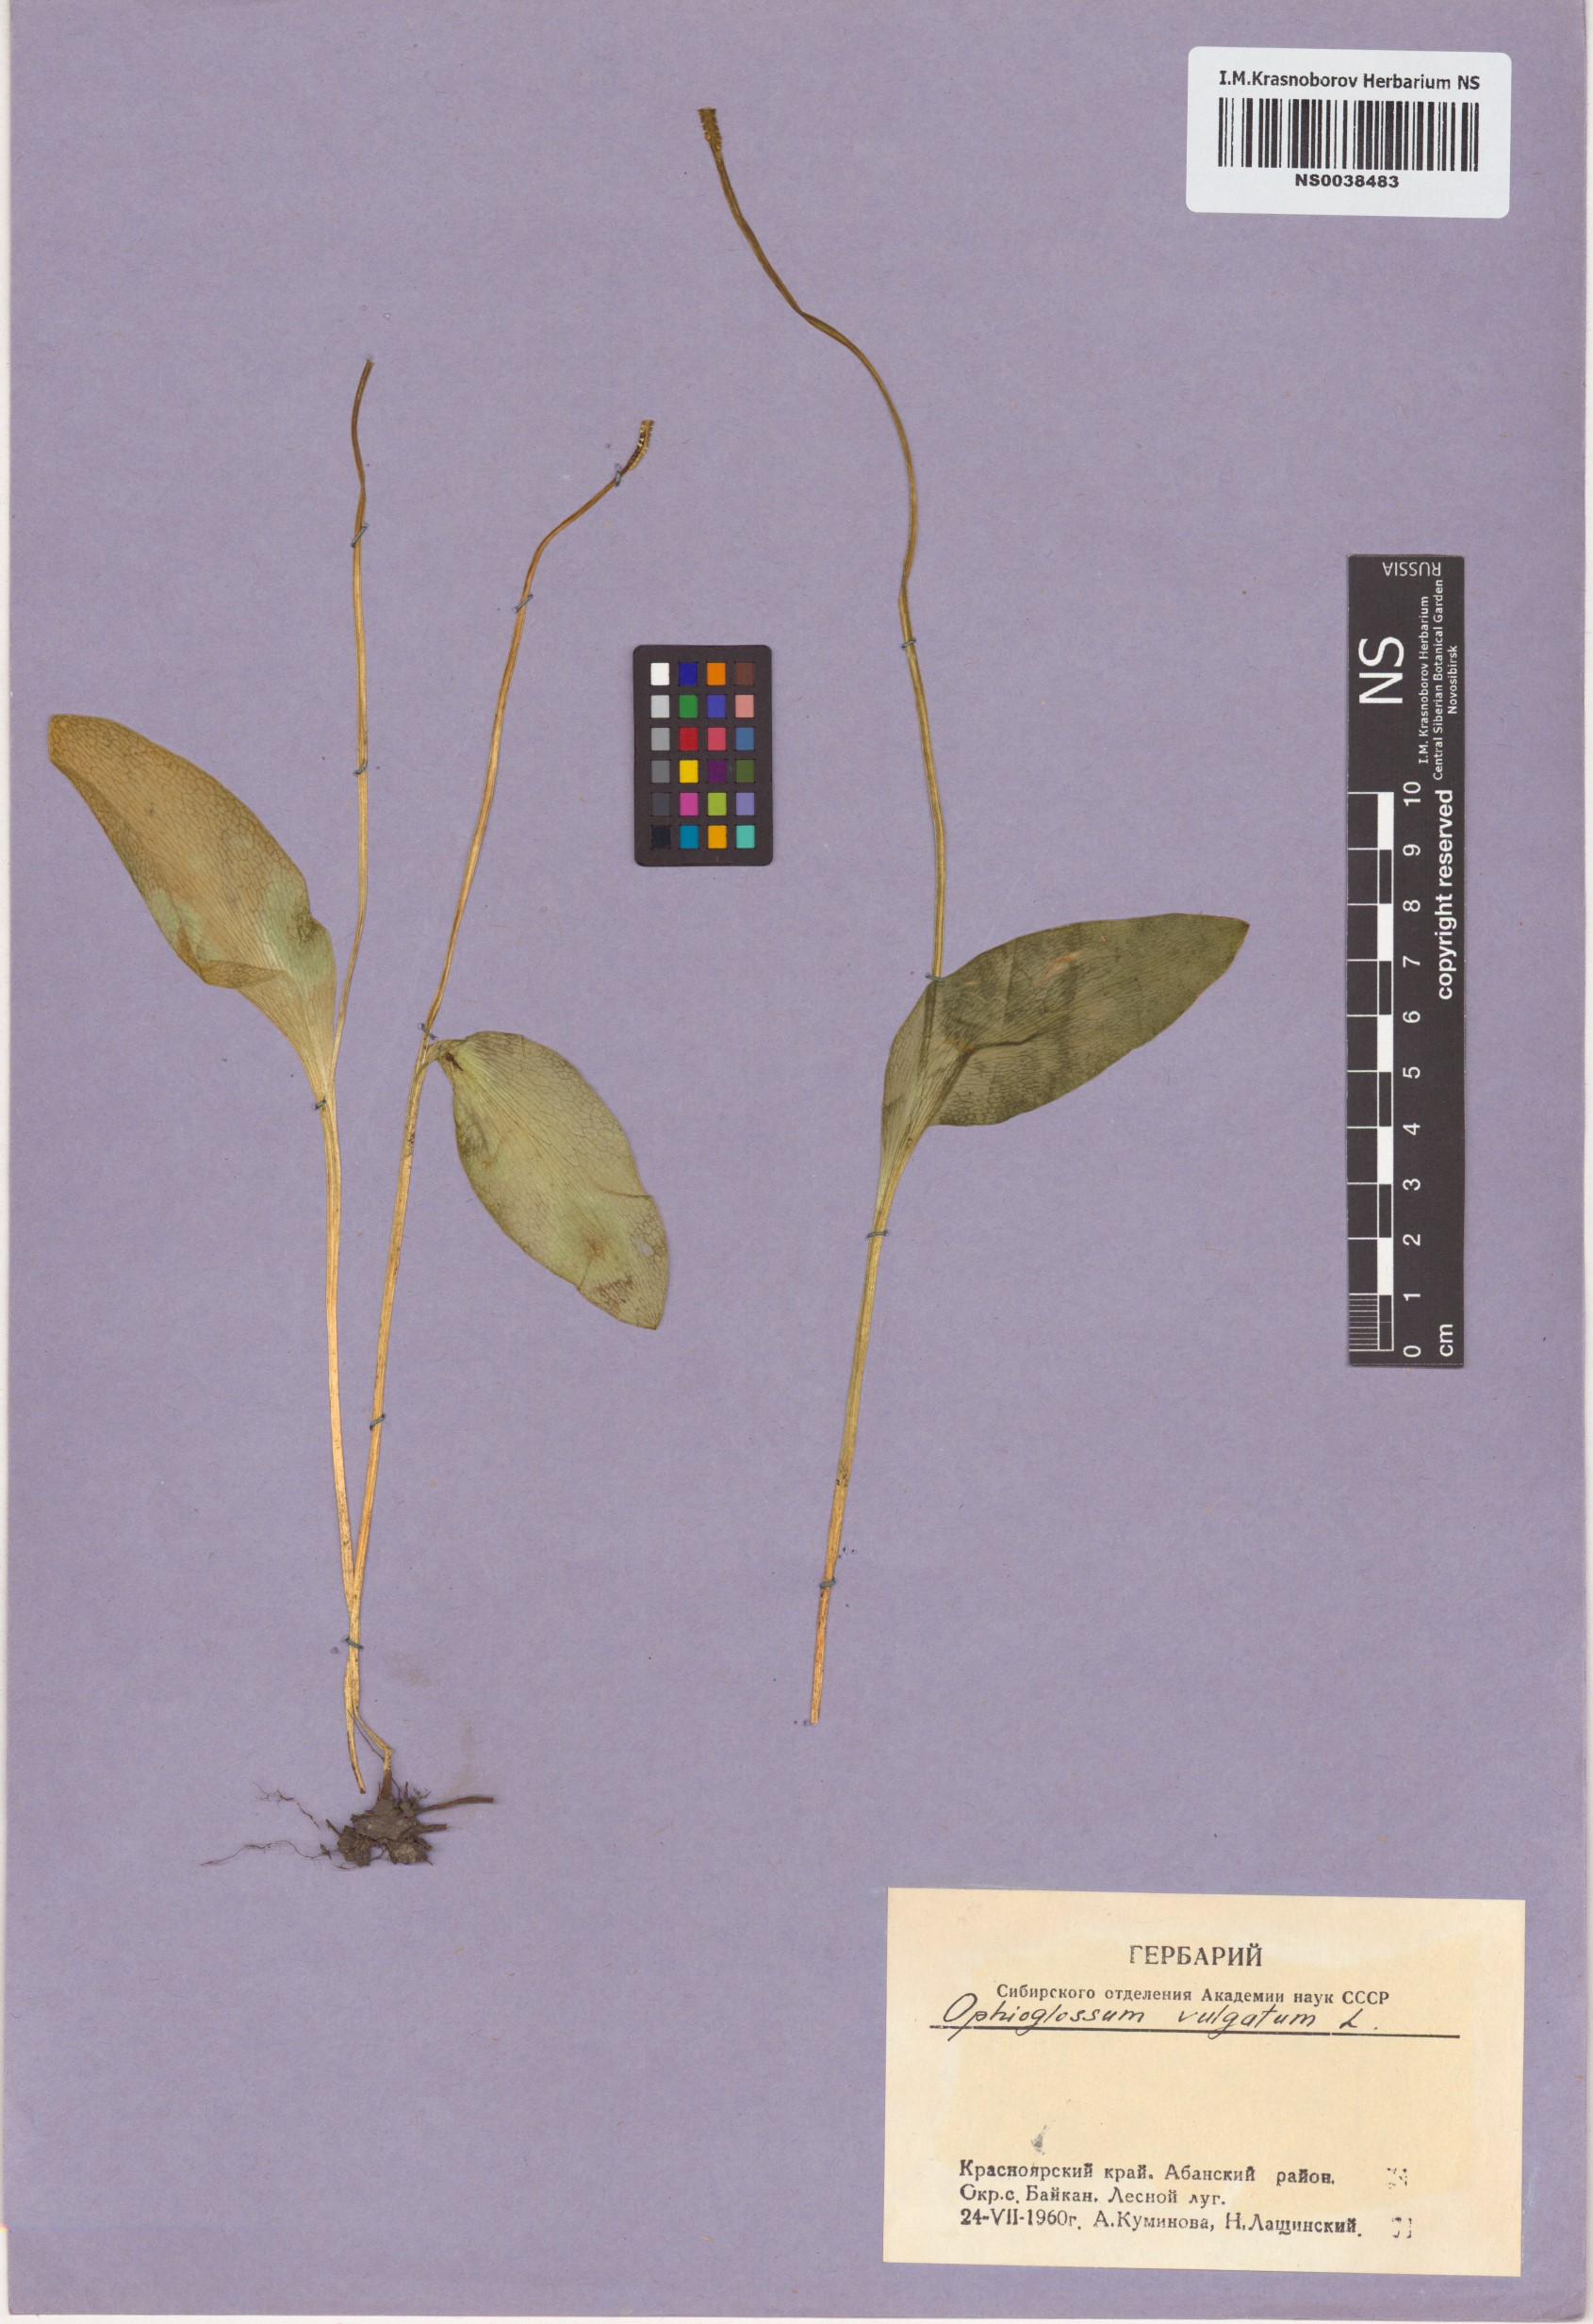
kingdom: Plantae
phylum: Tracheophyta
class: Polypodiopsida
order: Ophioglossales
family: Ophioglossaceae
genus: Ophioglossum
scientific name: Ophioglossum vulgatum
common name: Adder's-tongue
